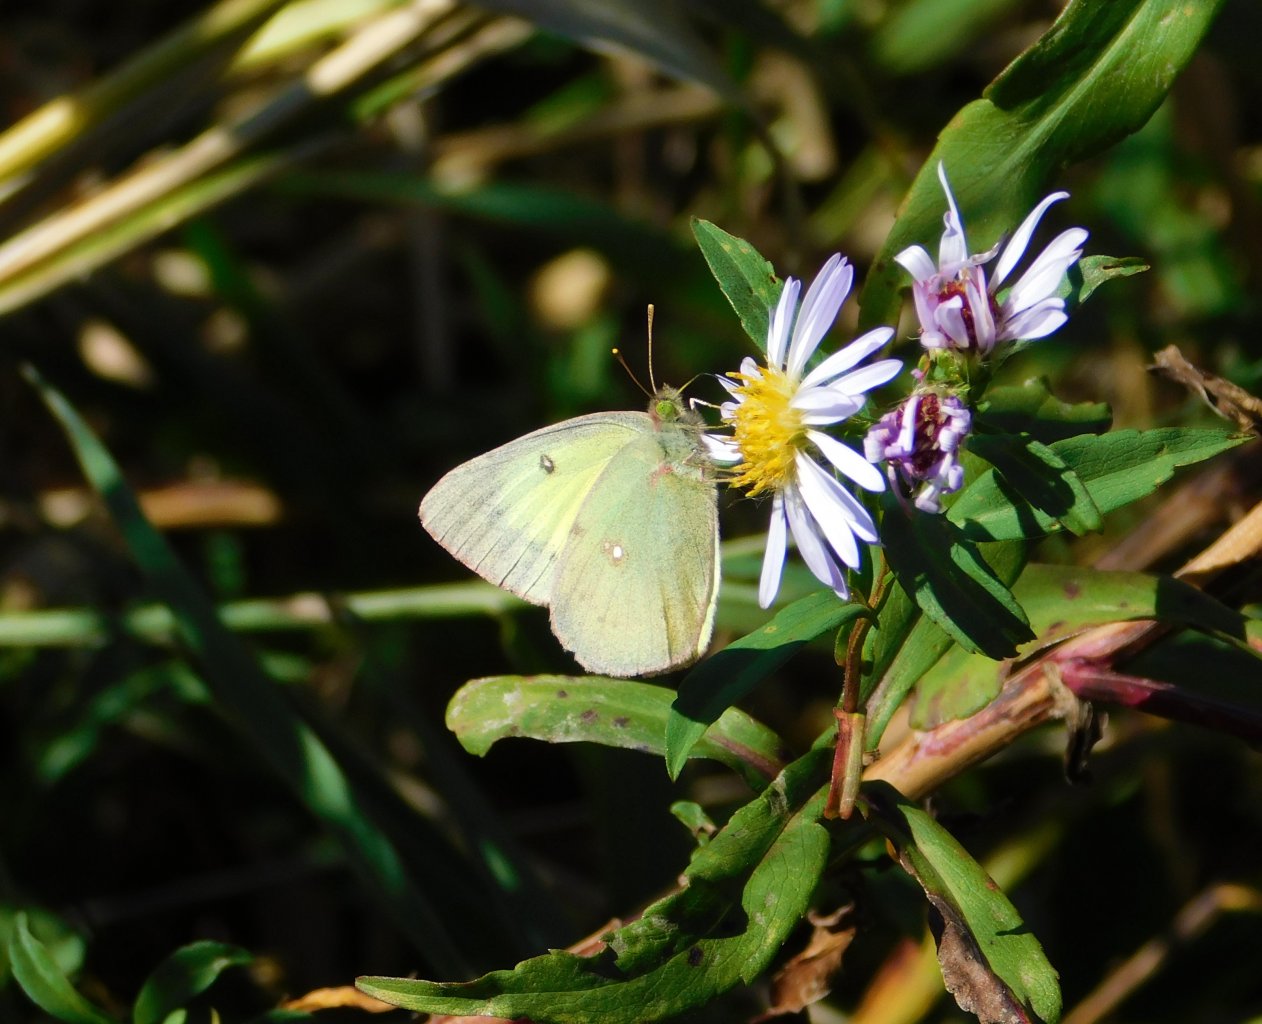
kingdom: Animalia
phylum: Arthropoda
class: Insecta
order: Lepidoptera
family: Pieridae
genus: Colias
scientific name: Colias philodice
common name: Clouded Sulphur
